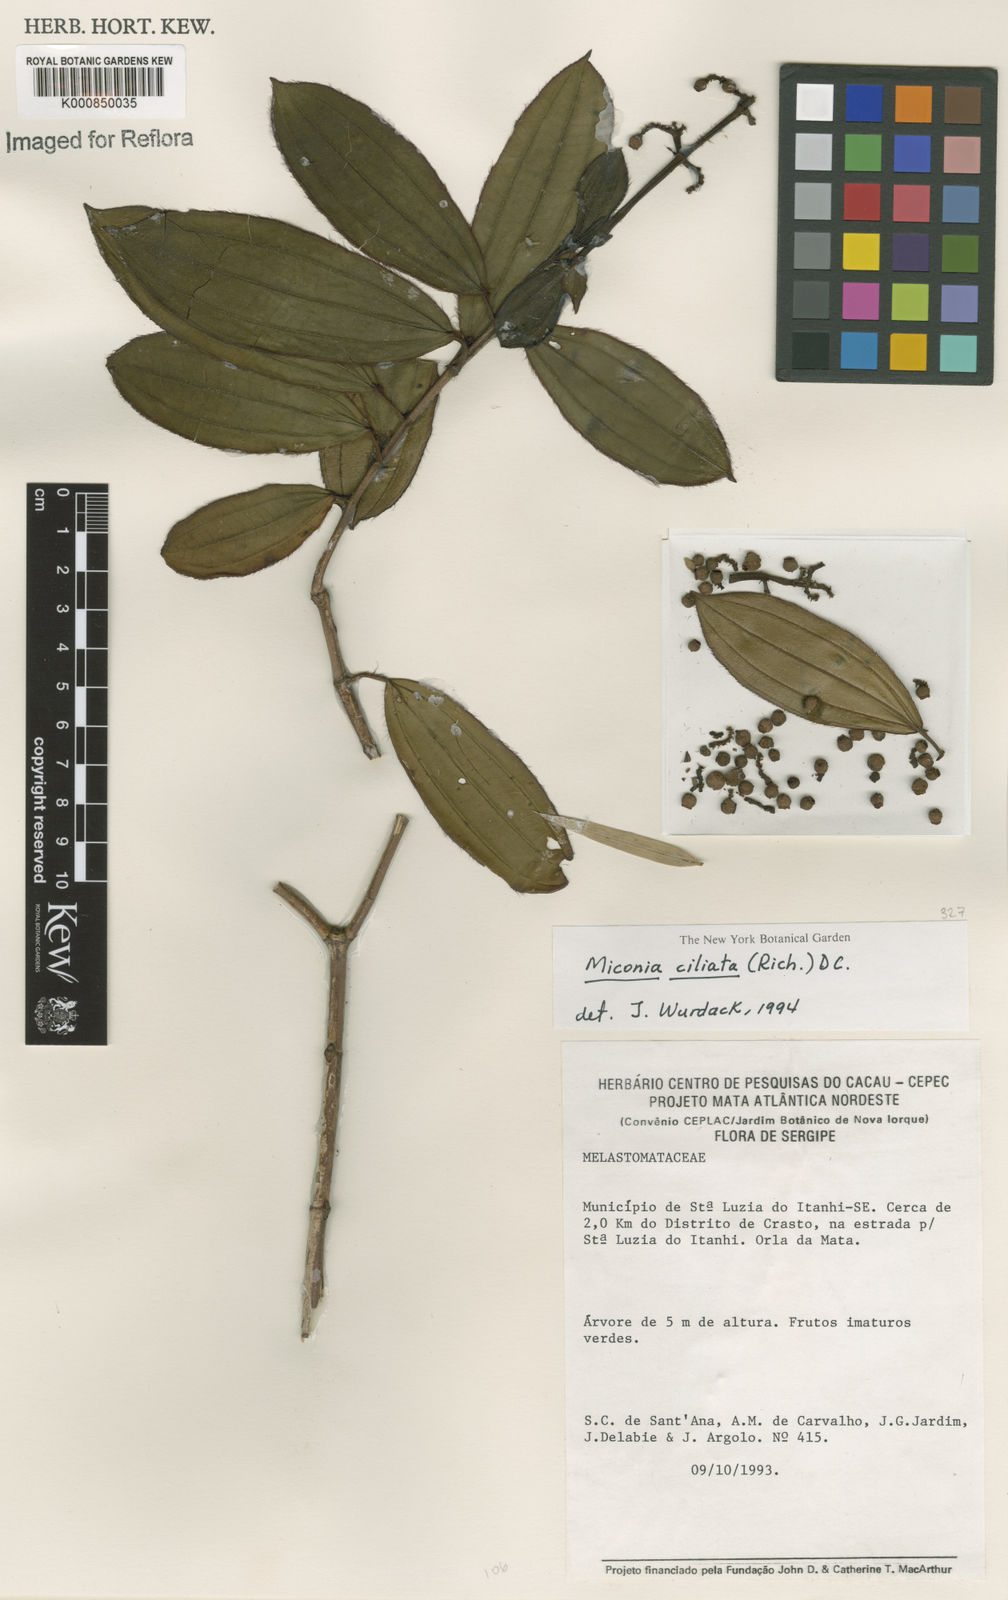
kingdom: Plantae
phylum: Tracheophyta
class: Magnoliopsida
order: Myrtales
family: Melastomataceae
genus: Miconia
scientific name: Miconia ciliata
